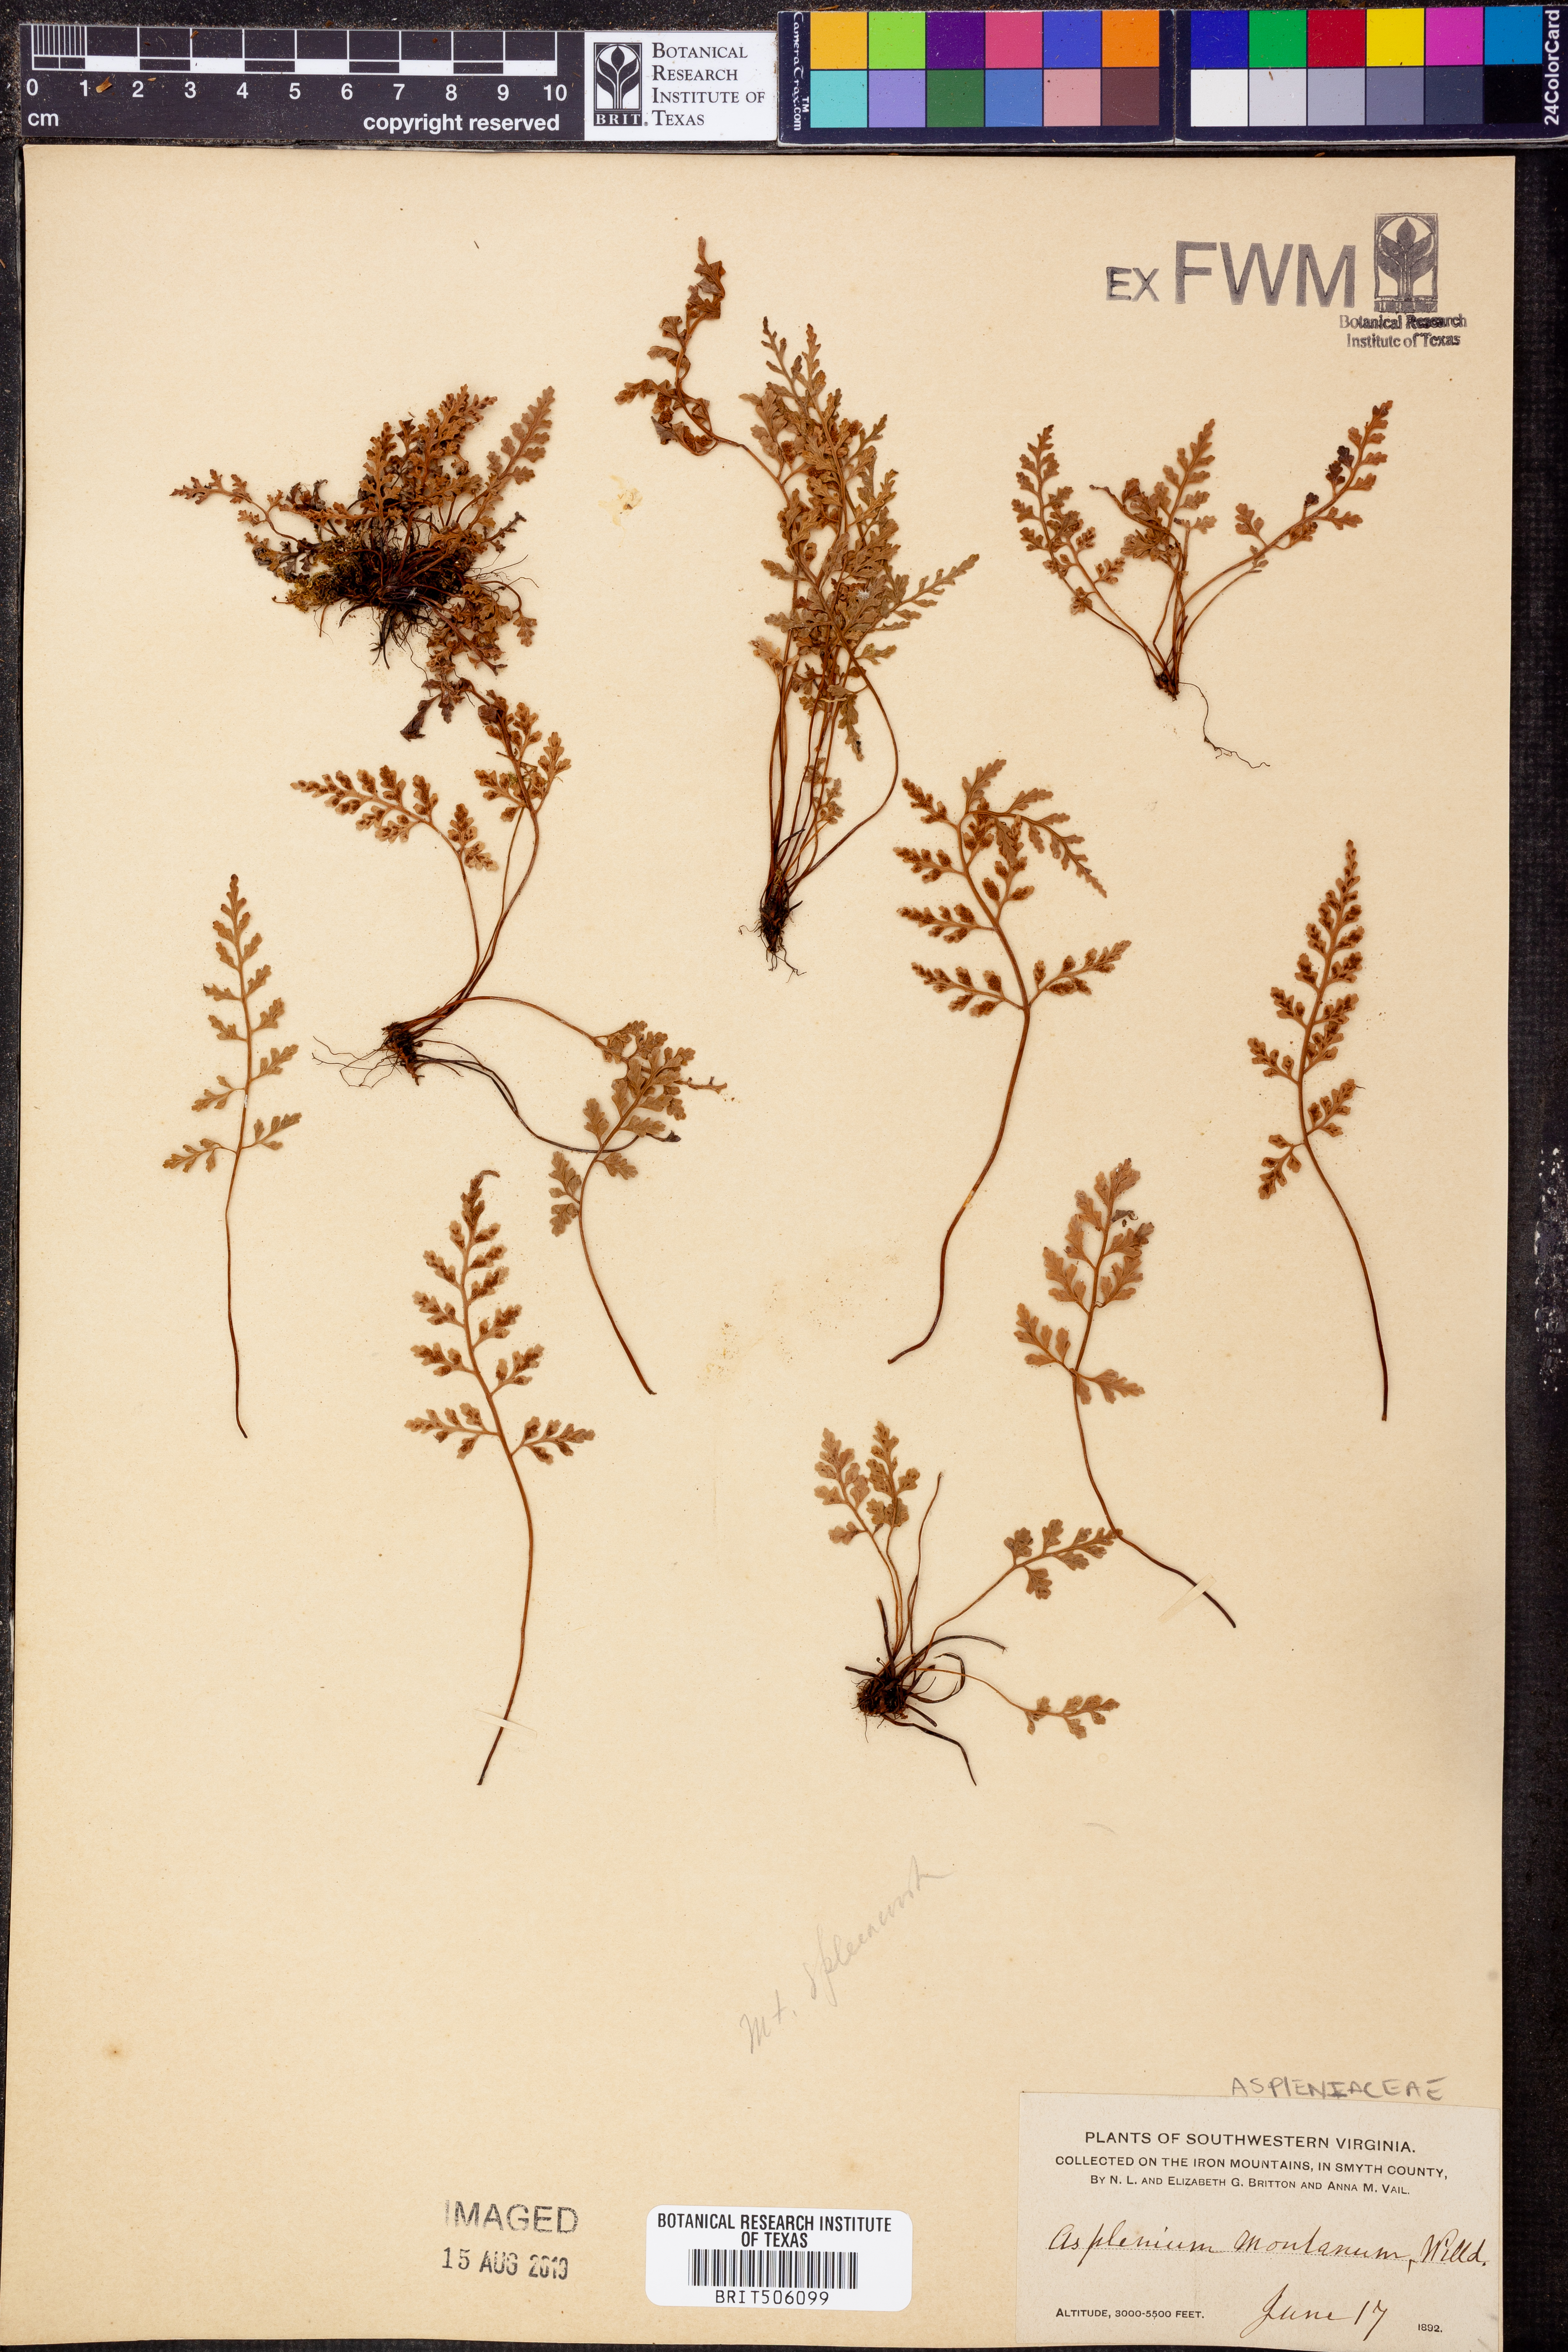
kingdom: Plantae
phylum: Tracheophyta
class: Polypodiopsida
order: Polypodiales
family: Aspleniaceae
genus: Asplenium
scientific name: Asplenium montanum
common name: Mountain spleenwort
